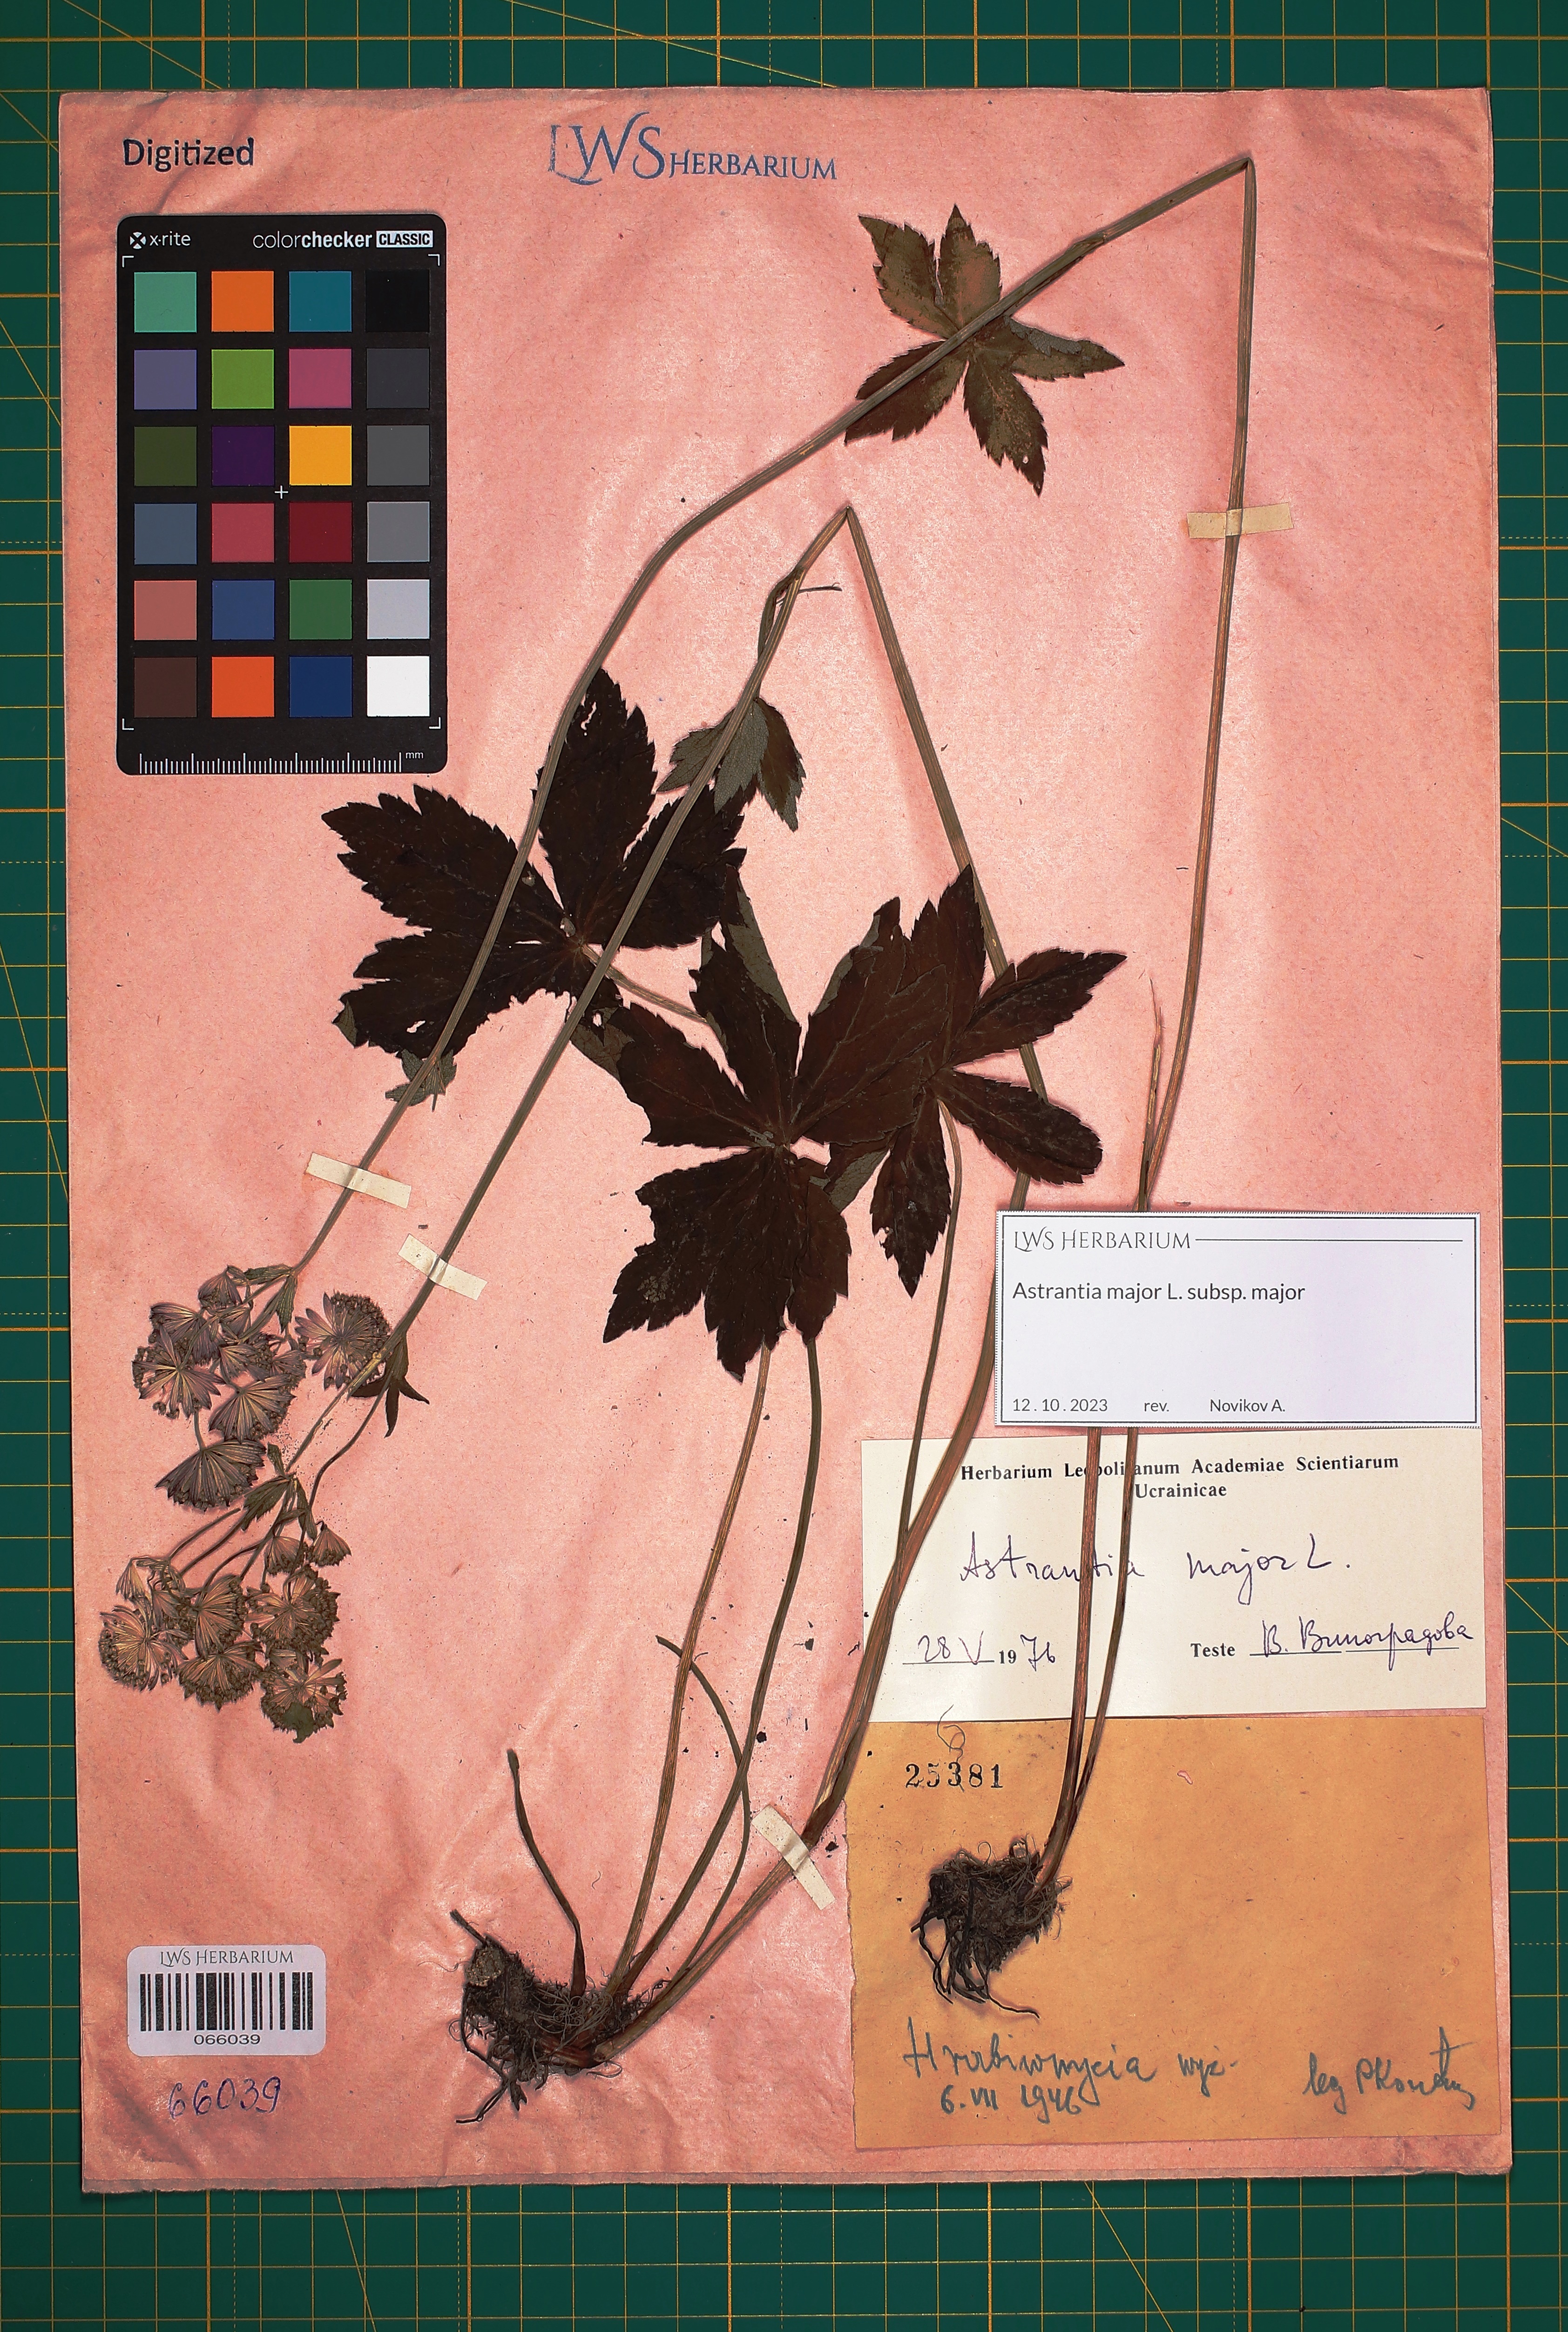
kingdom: Plantae
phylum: Tracheophyta
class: Magnoliopsida
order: Apiales
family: Apiaceae
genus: Astrantia
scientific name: Astrantia major
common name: Greater masterwort
